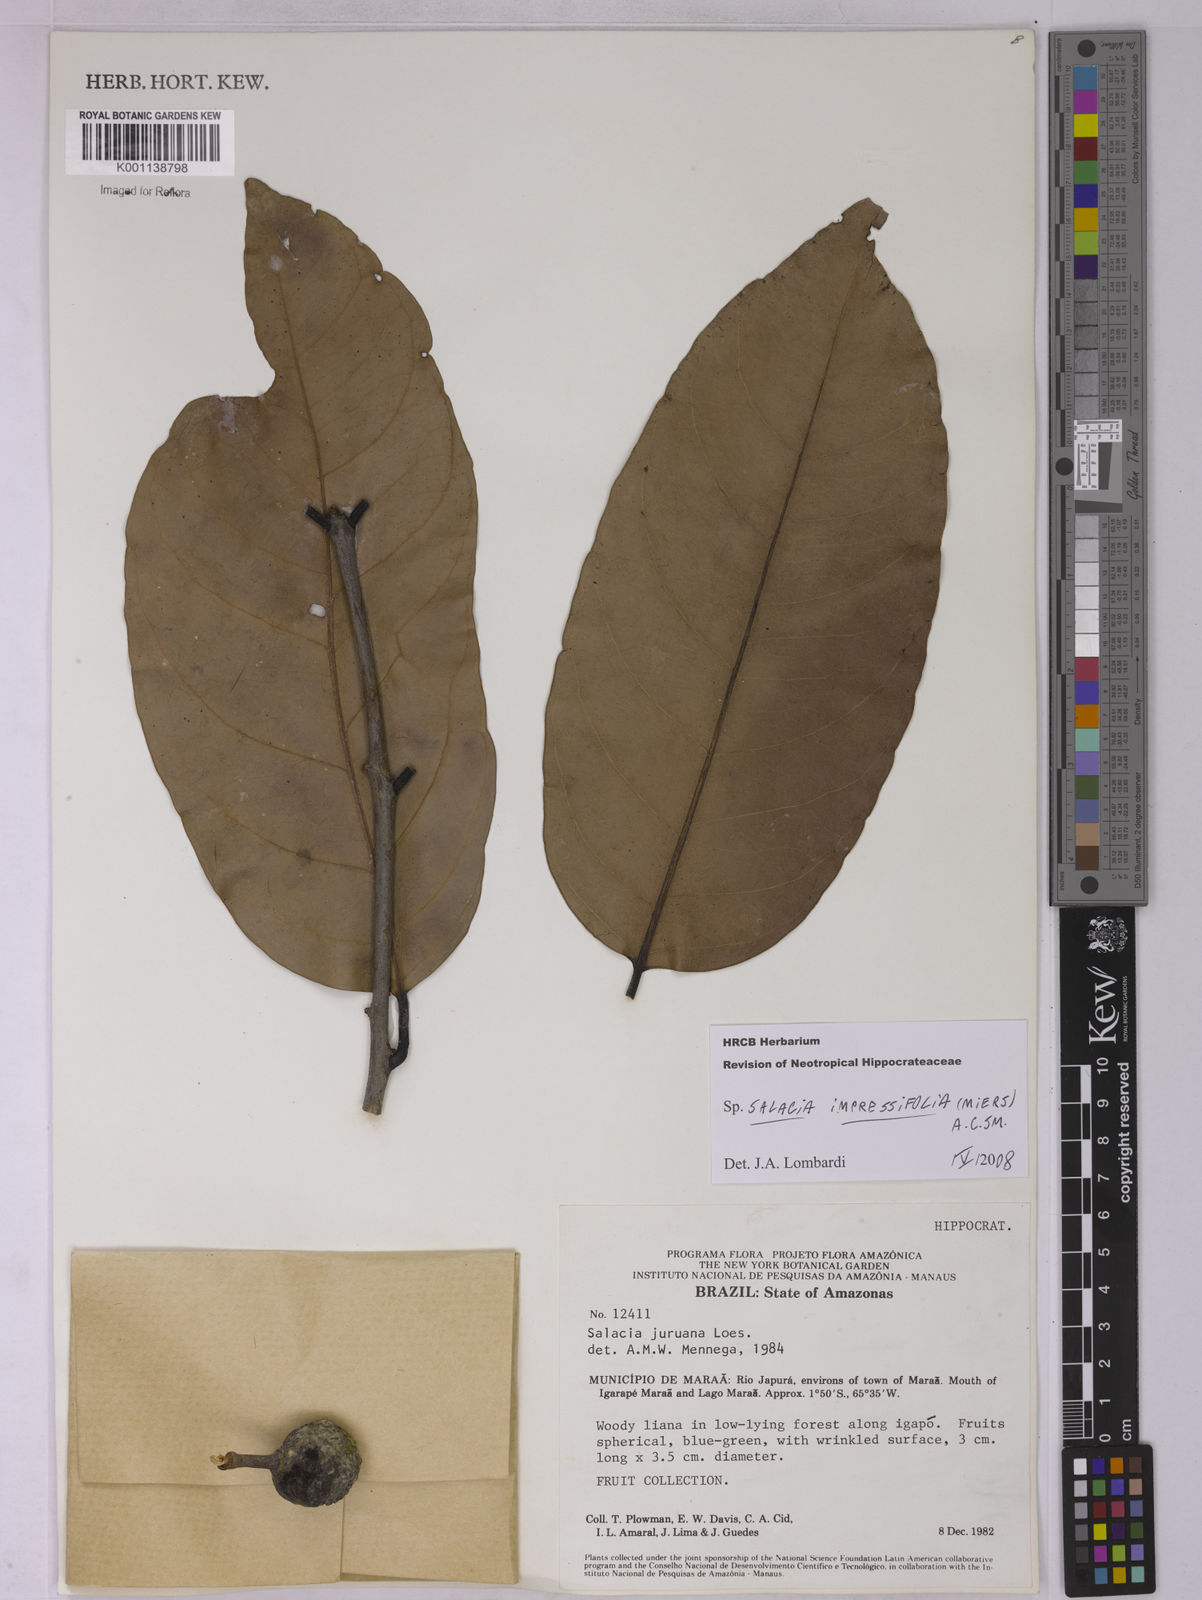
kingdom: Plantae
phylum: Tracheophyta
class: Magnoliopsida
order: Celastrales
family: Celastraceae
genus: Salacia
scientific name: Salacia impressifolia
